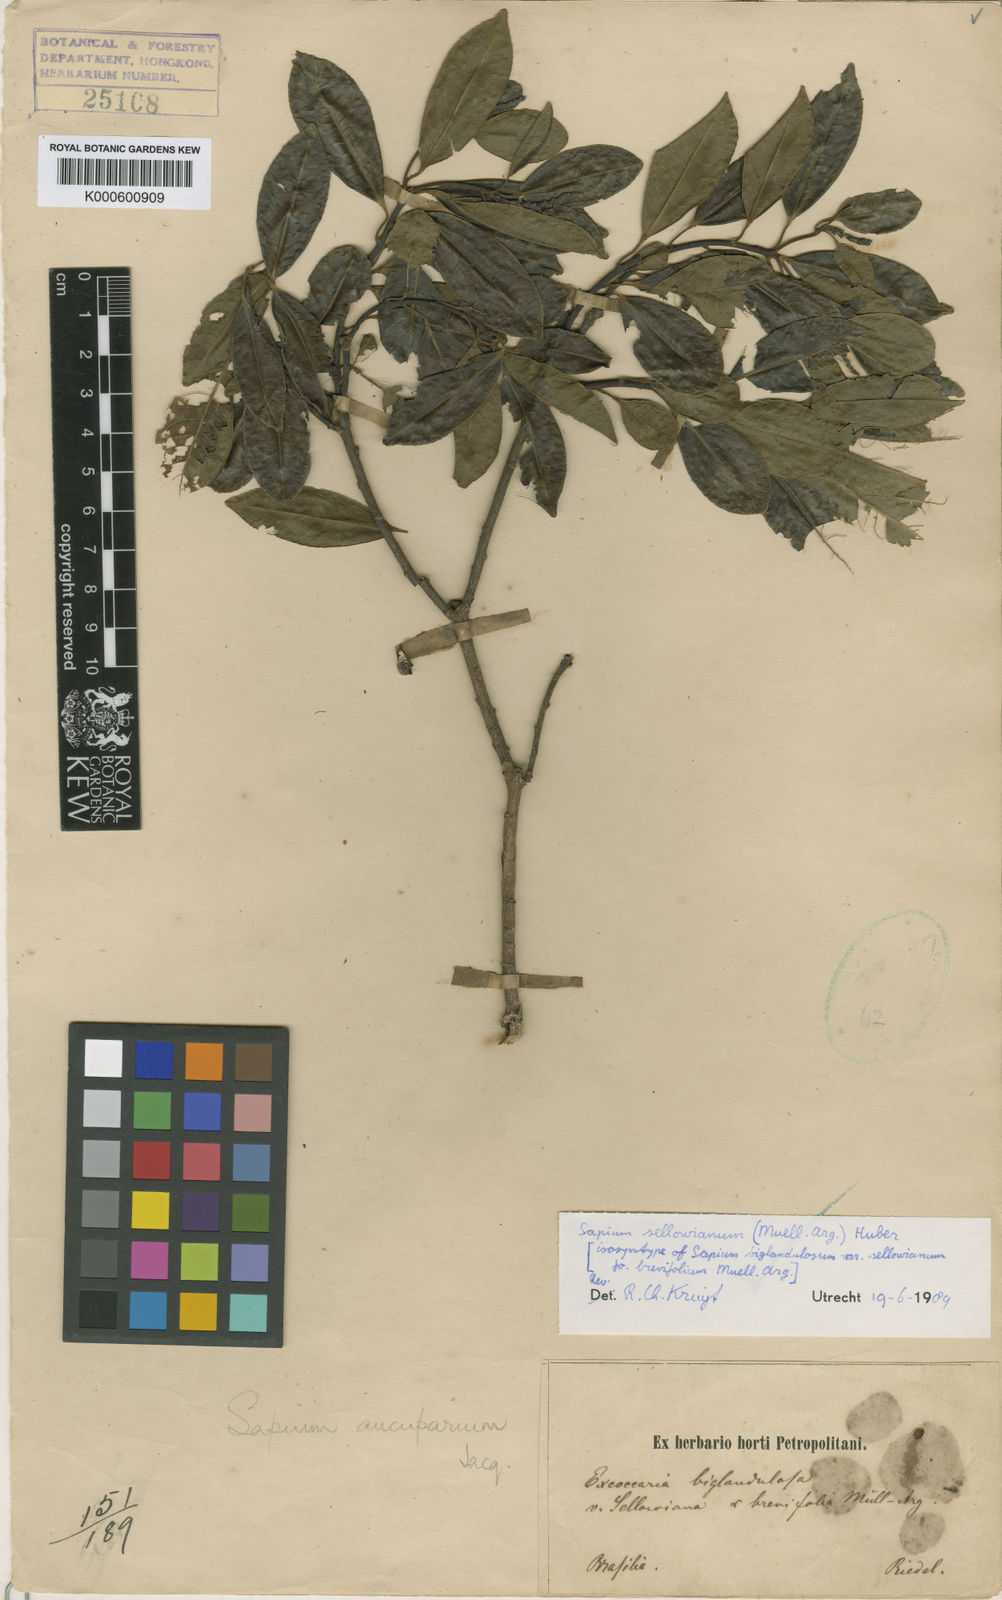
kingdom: Plantae
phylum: Tracheophyta
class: Magnoliopsida
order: Malpighiales
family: Euphorbiaceae
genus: Sapium
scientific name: Sapium
